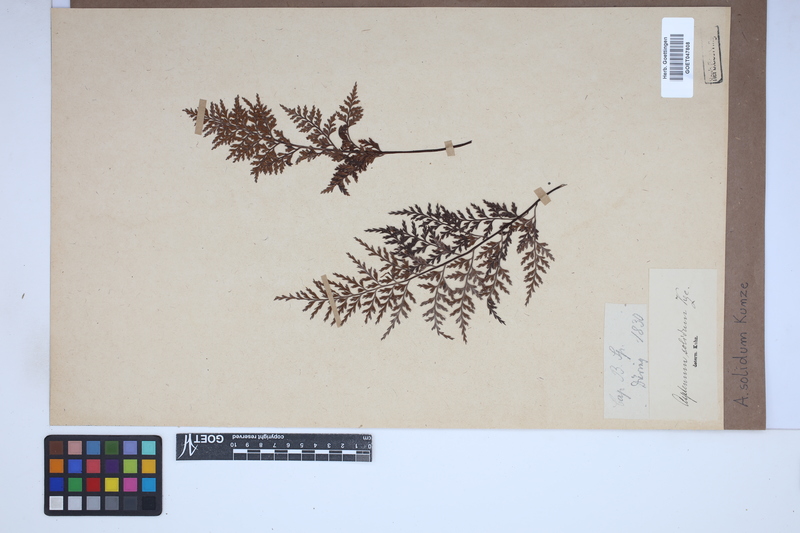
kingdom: Plantae
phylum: Tracheophyta
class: Polypodiopsida
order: Polypodiales
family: Aspleniaceae
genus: Asplenium
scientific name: Asplenium adiantum-nigrum
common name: Black spleenwort
